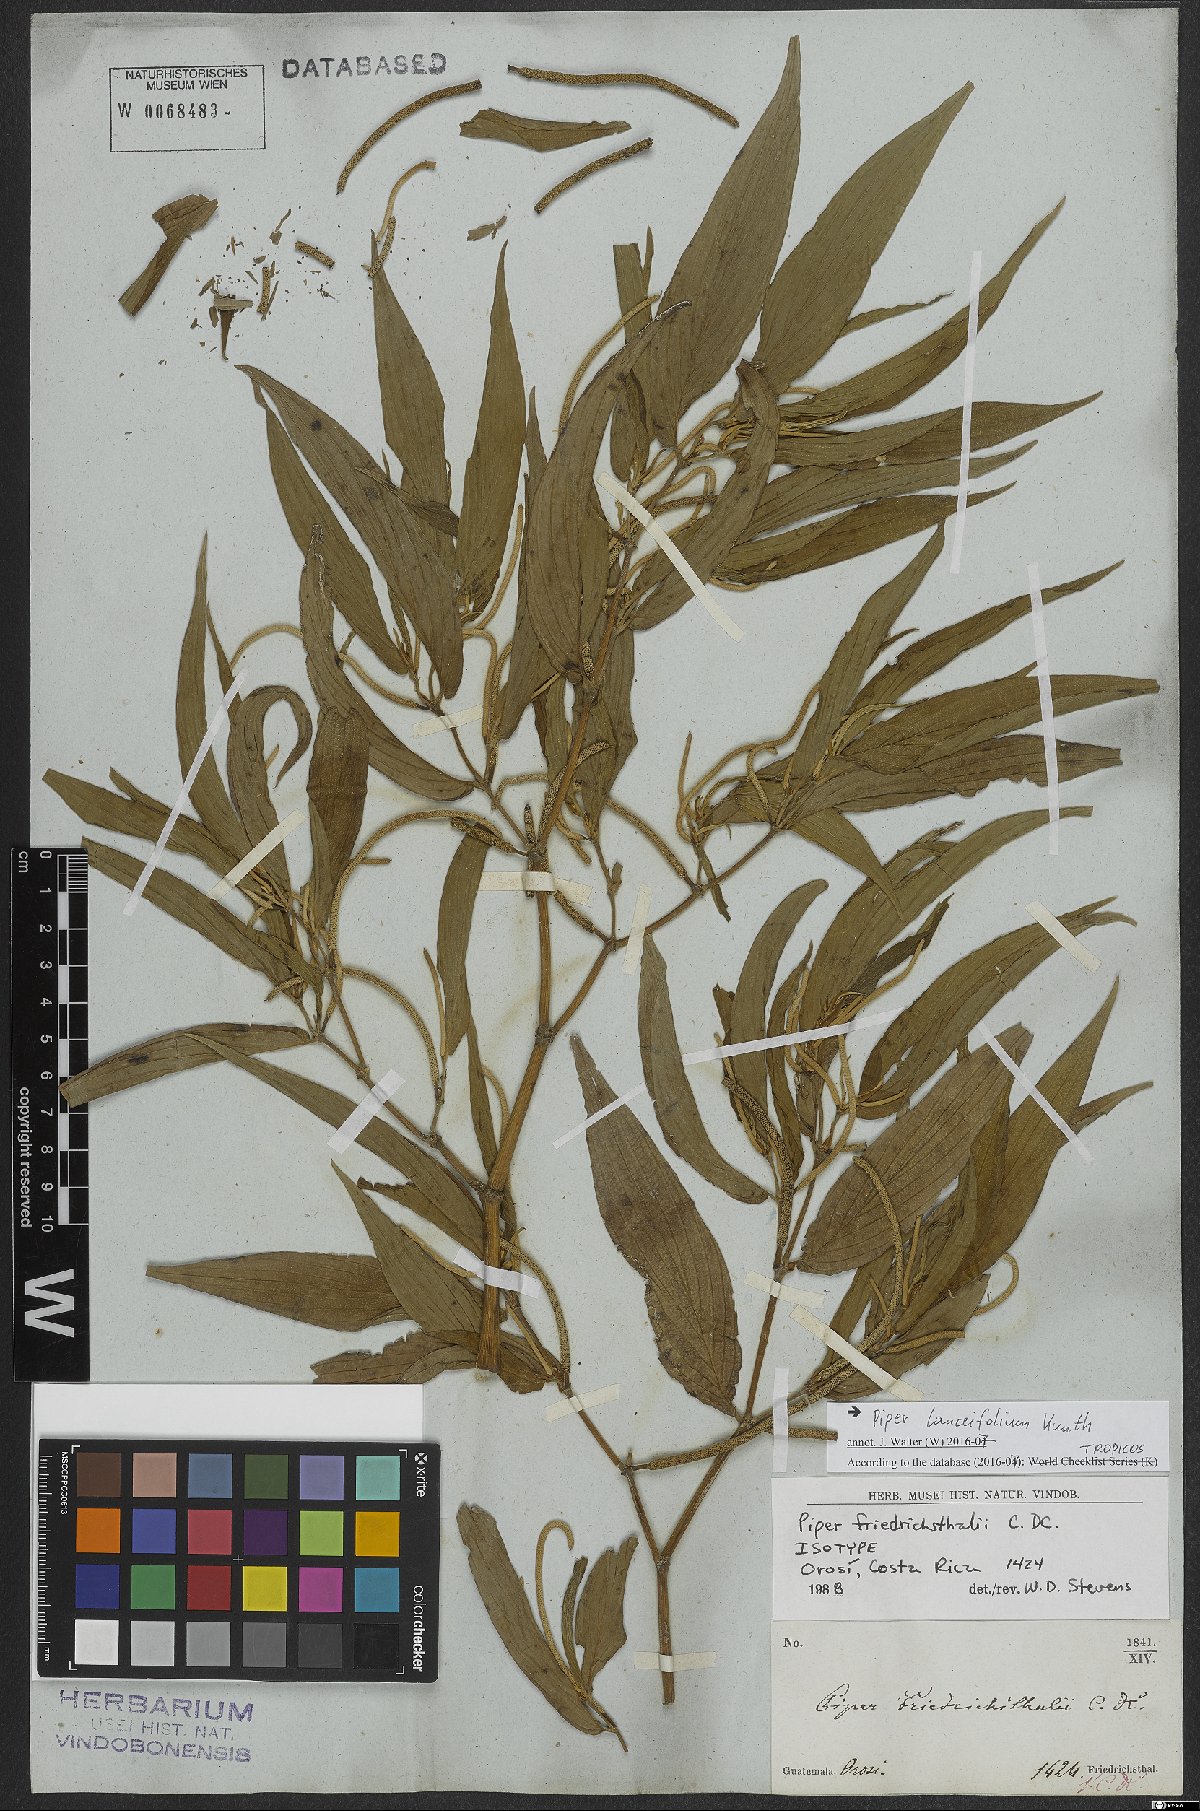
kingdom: Plantae
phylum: Tracheophyta
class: Magnoliopsida
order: Piperales
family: Piperaceae
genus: Piper
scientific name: Piper lanceifolium
